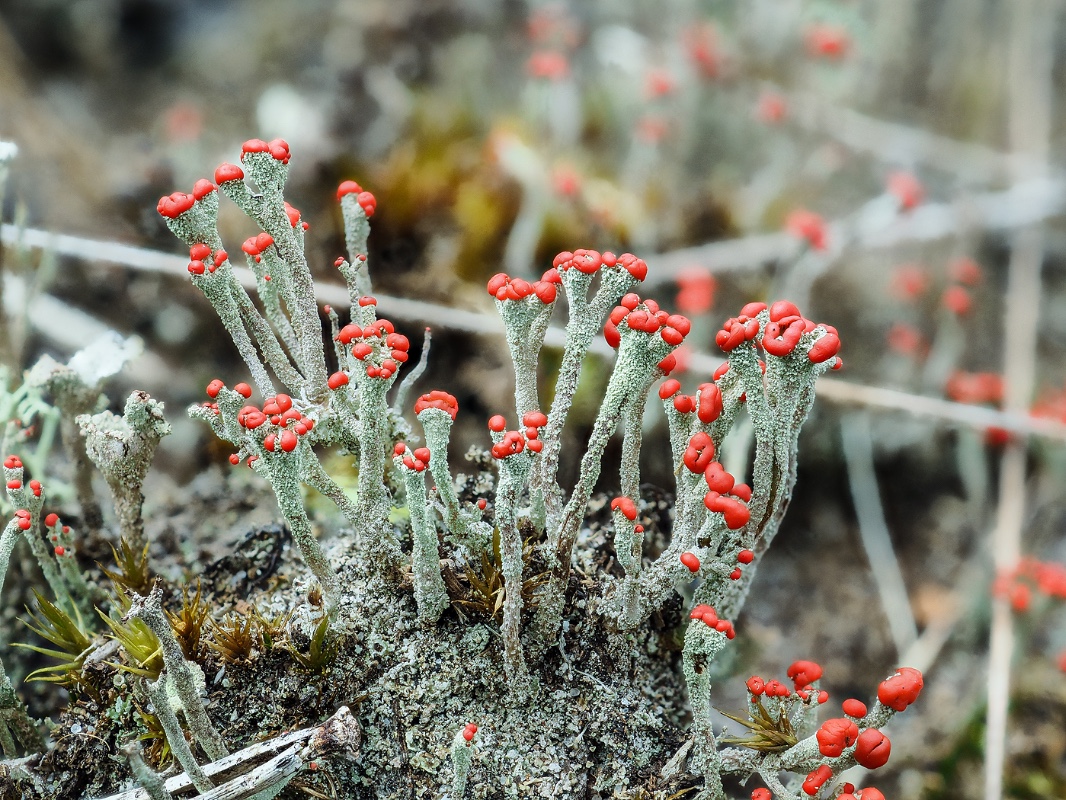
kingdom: Fungi
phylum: Ascomycota
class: Lecanoromycetes
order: Lecanorales
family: Cladoniaceae
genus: Cladonia
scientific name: Cladonia floerkeana
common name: lakrød bægerlav
